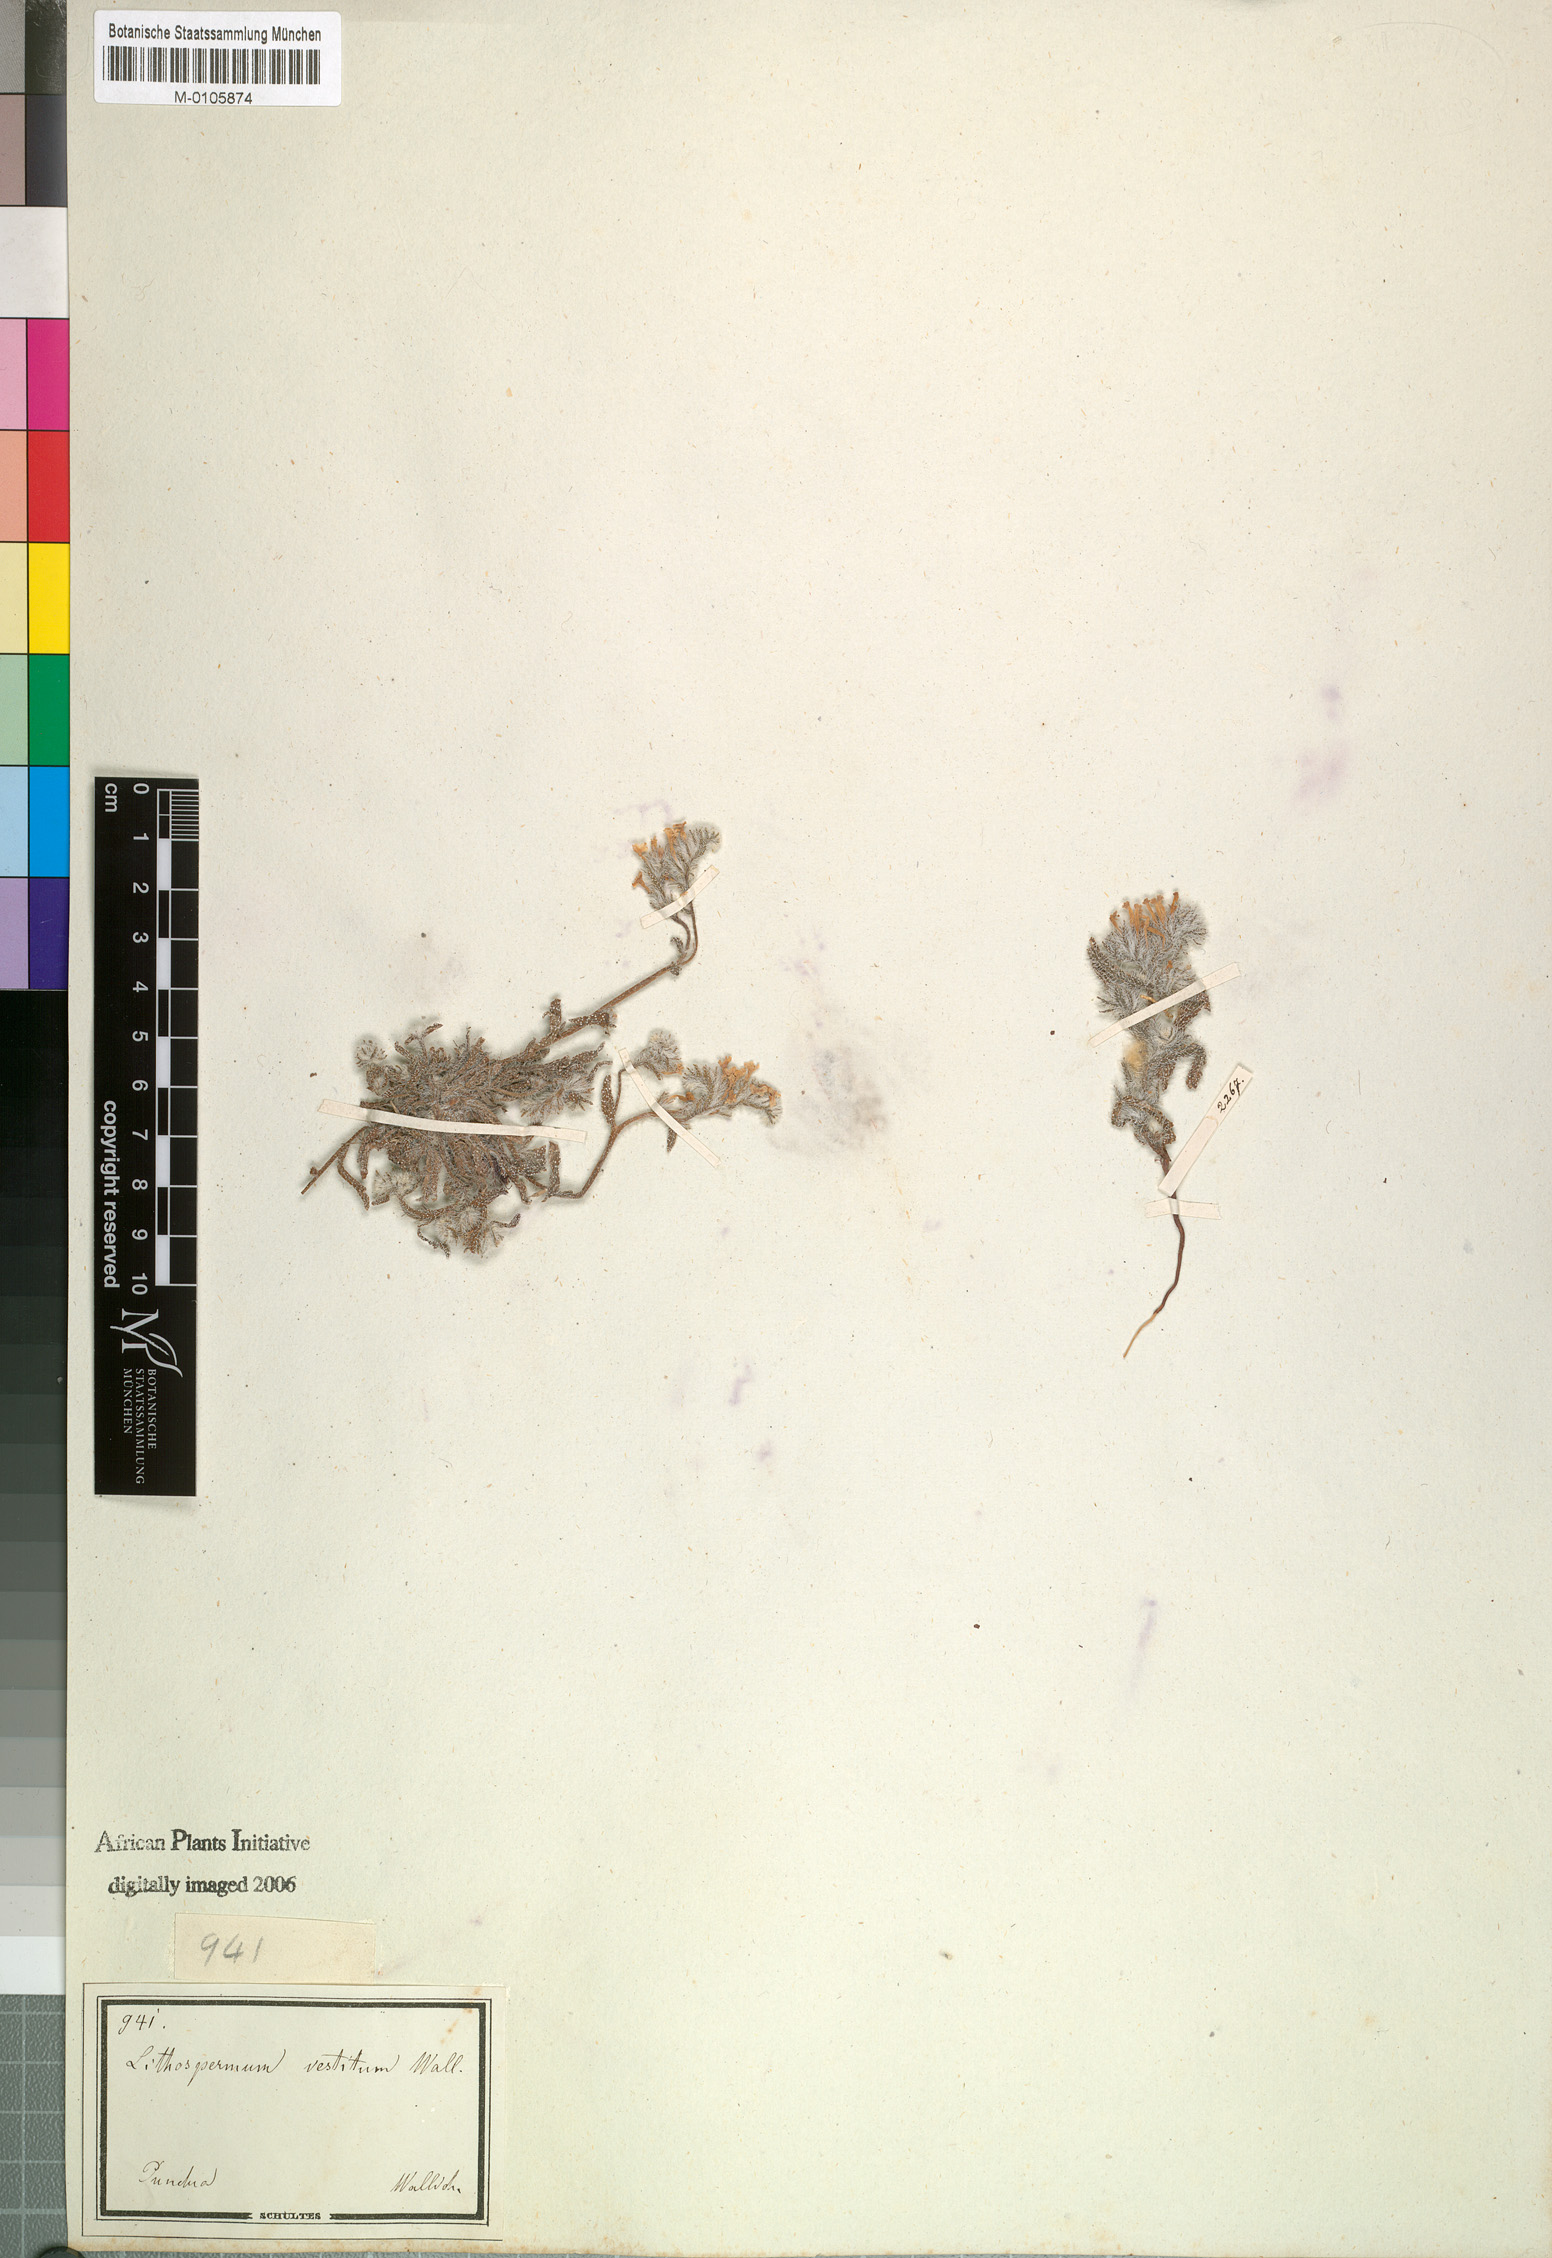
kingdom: Plantae
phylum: Tracheophyta
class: Magnoliopsida
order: Boraginales
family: Boraginaceae
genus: Arnebia
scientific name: Arnebia hispidissima
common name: Arabian-primrose
